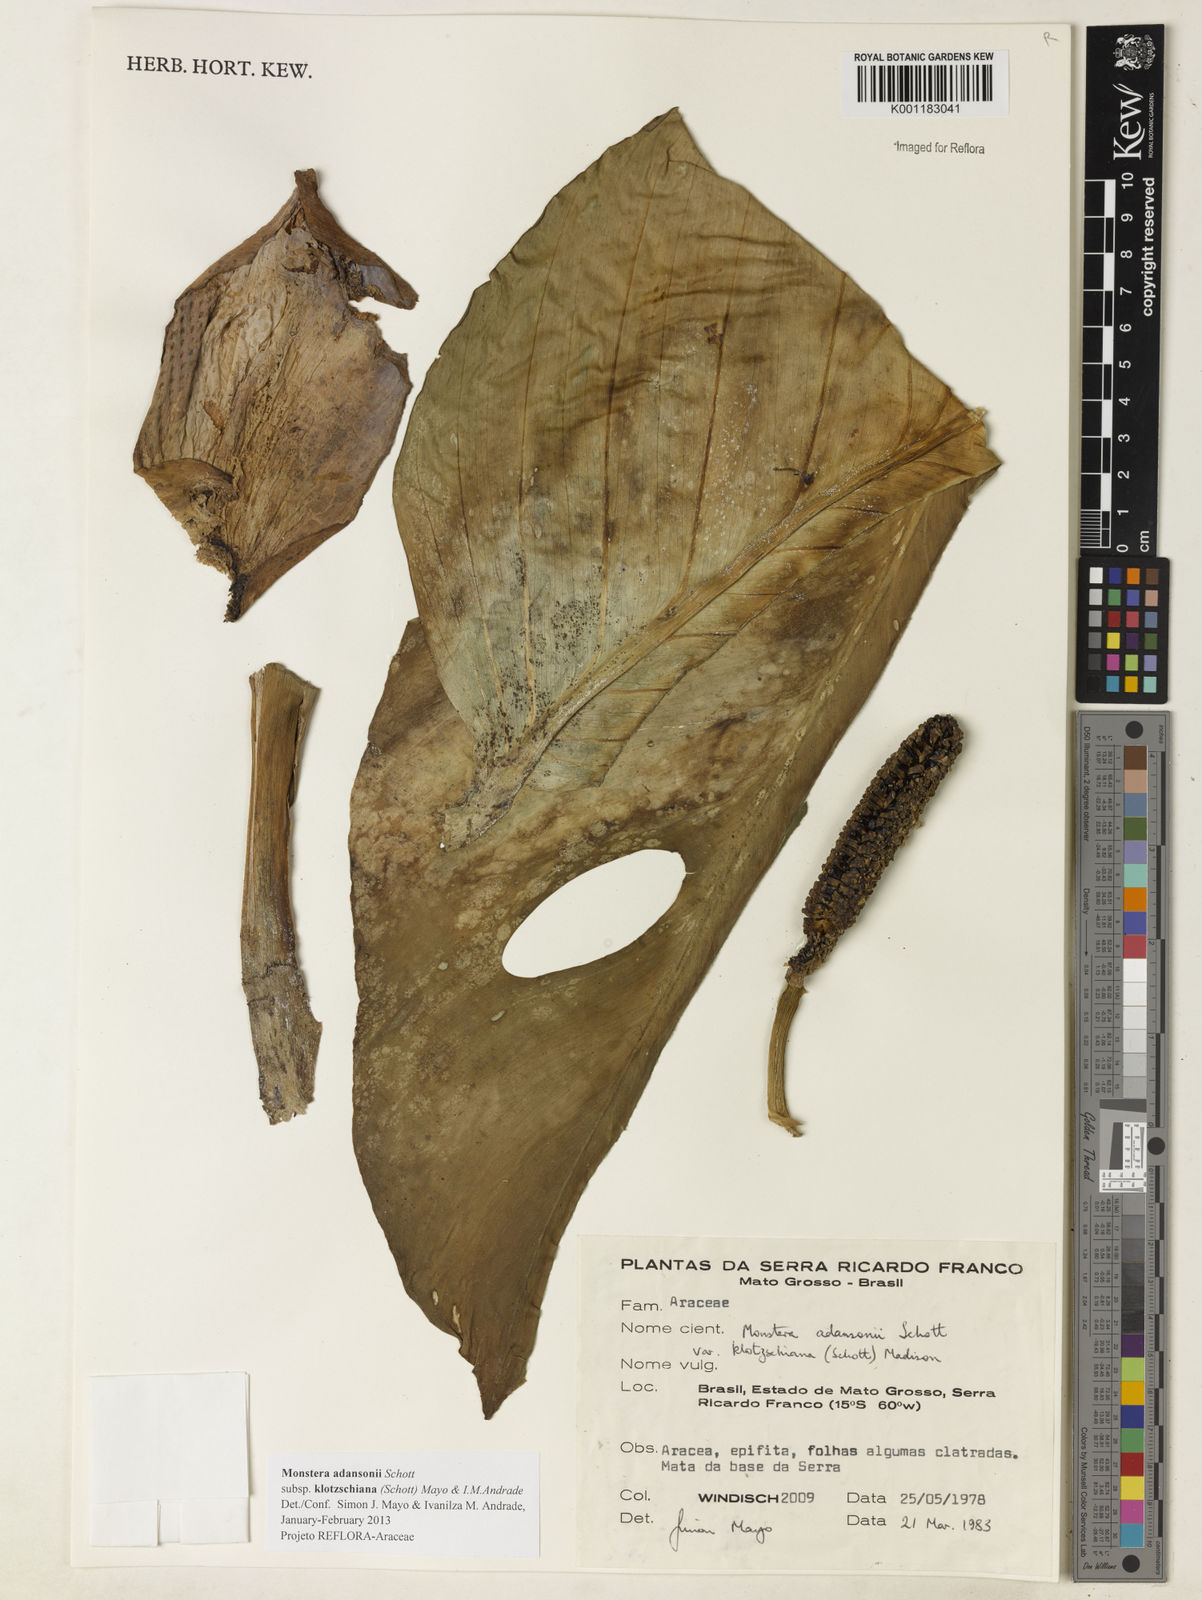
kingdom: Plantae
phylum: Tracheophyta
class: Liliopsida
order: Alismatales
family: Araceae
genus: Monstera
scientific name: Monstera adansonii
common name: Tarovine
